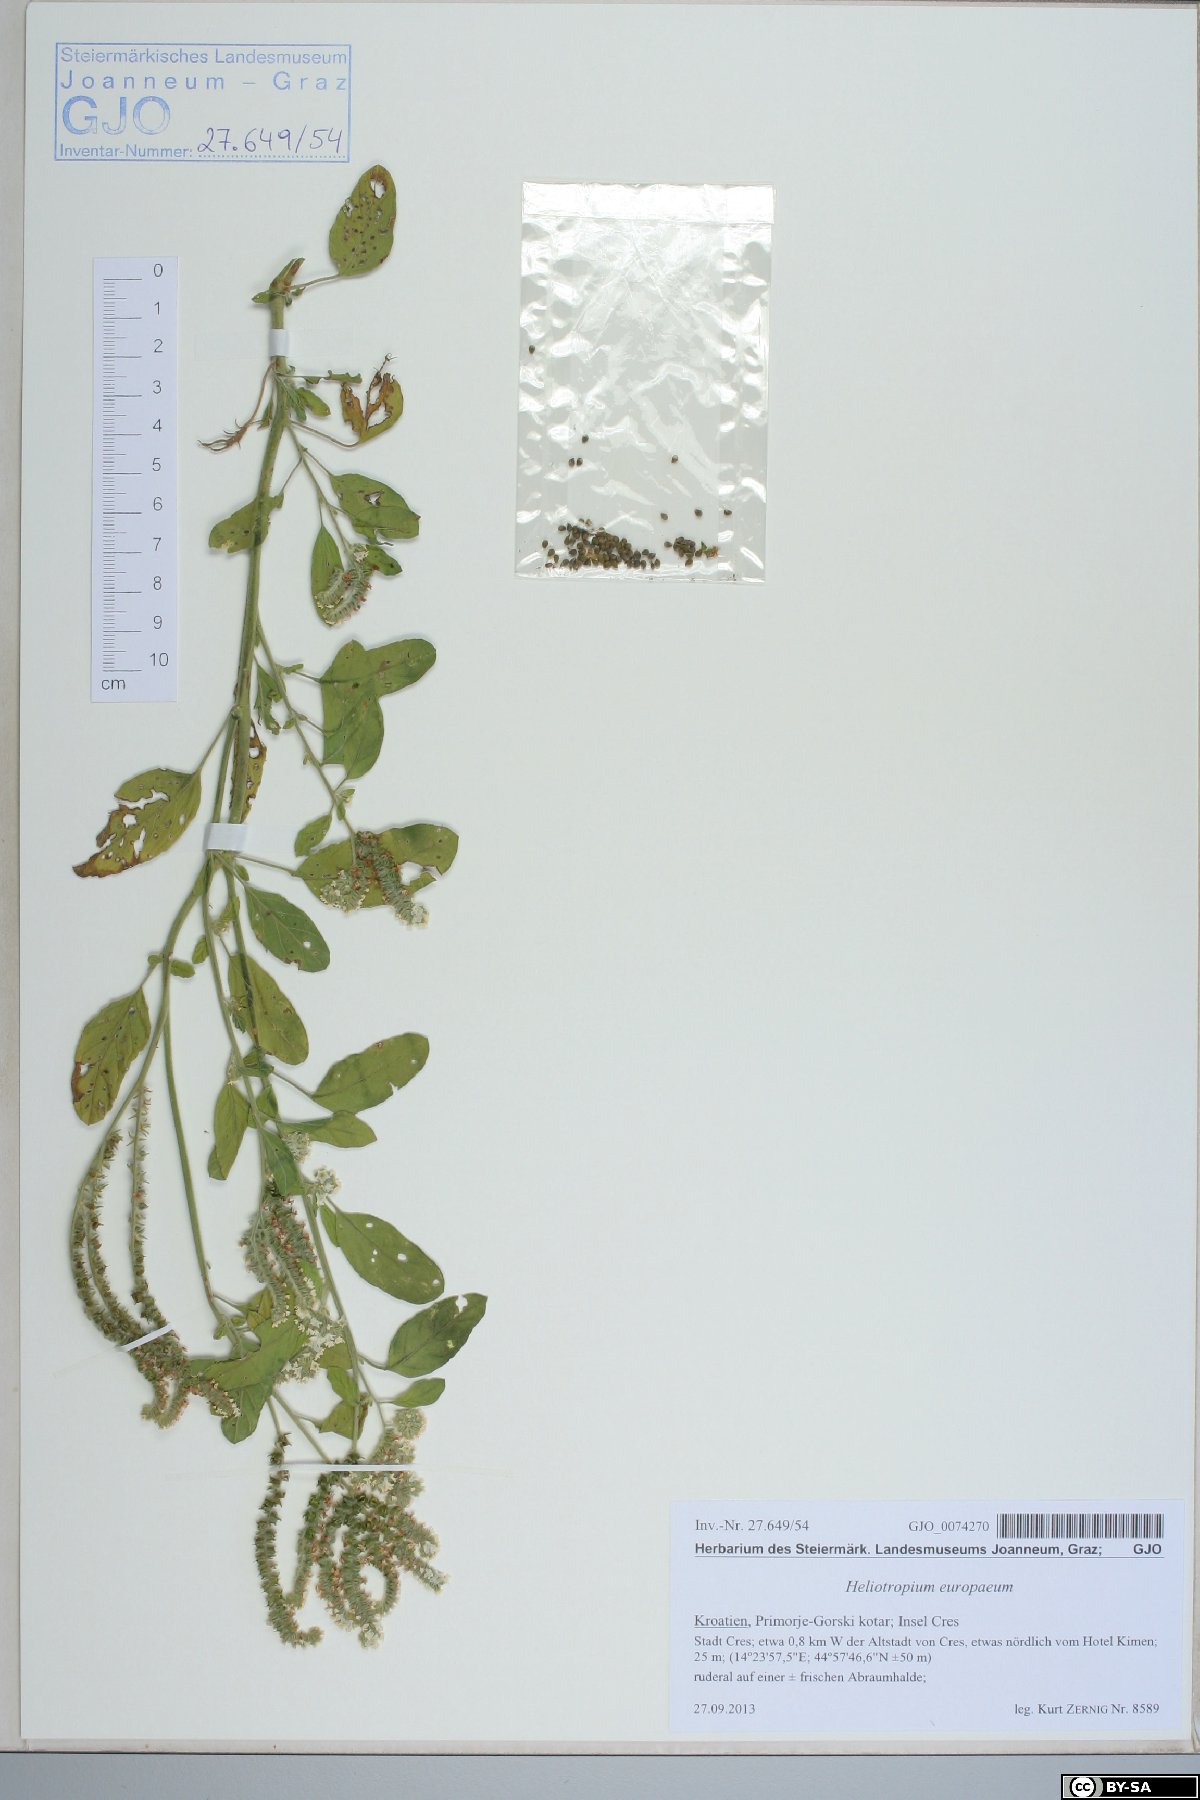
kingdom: Plantae
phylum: Tracheophyta
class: Magnoliopsida
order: Boraginales
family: Heliotropiaceae
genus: Heliotropium
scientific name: Heliotropium europaeum
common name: European heliotrope
